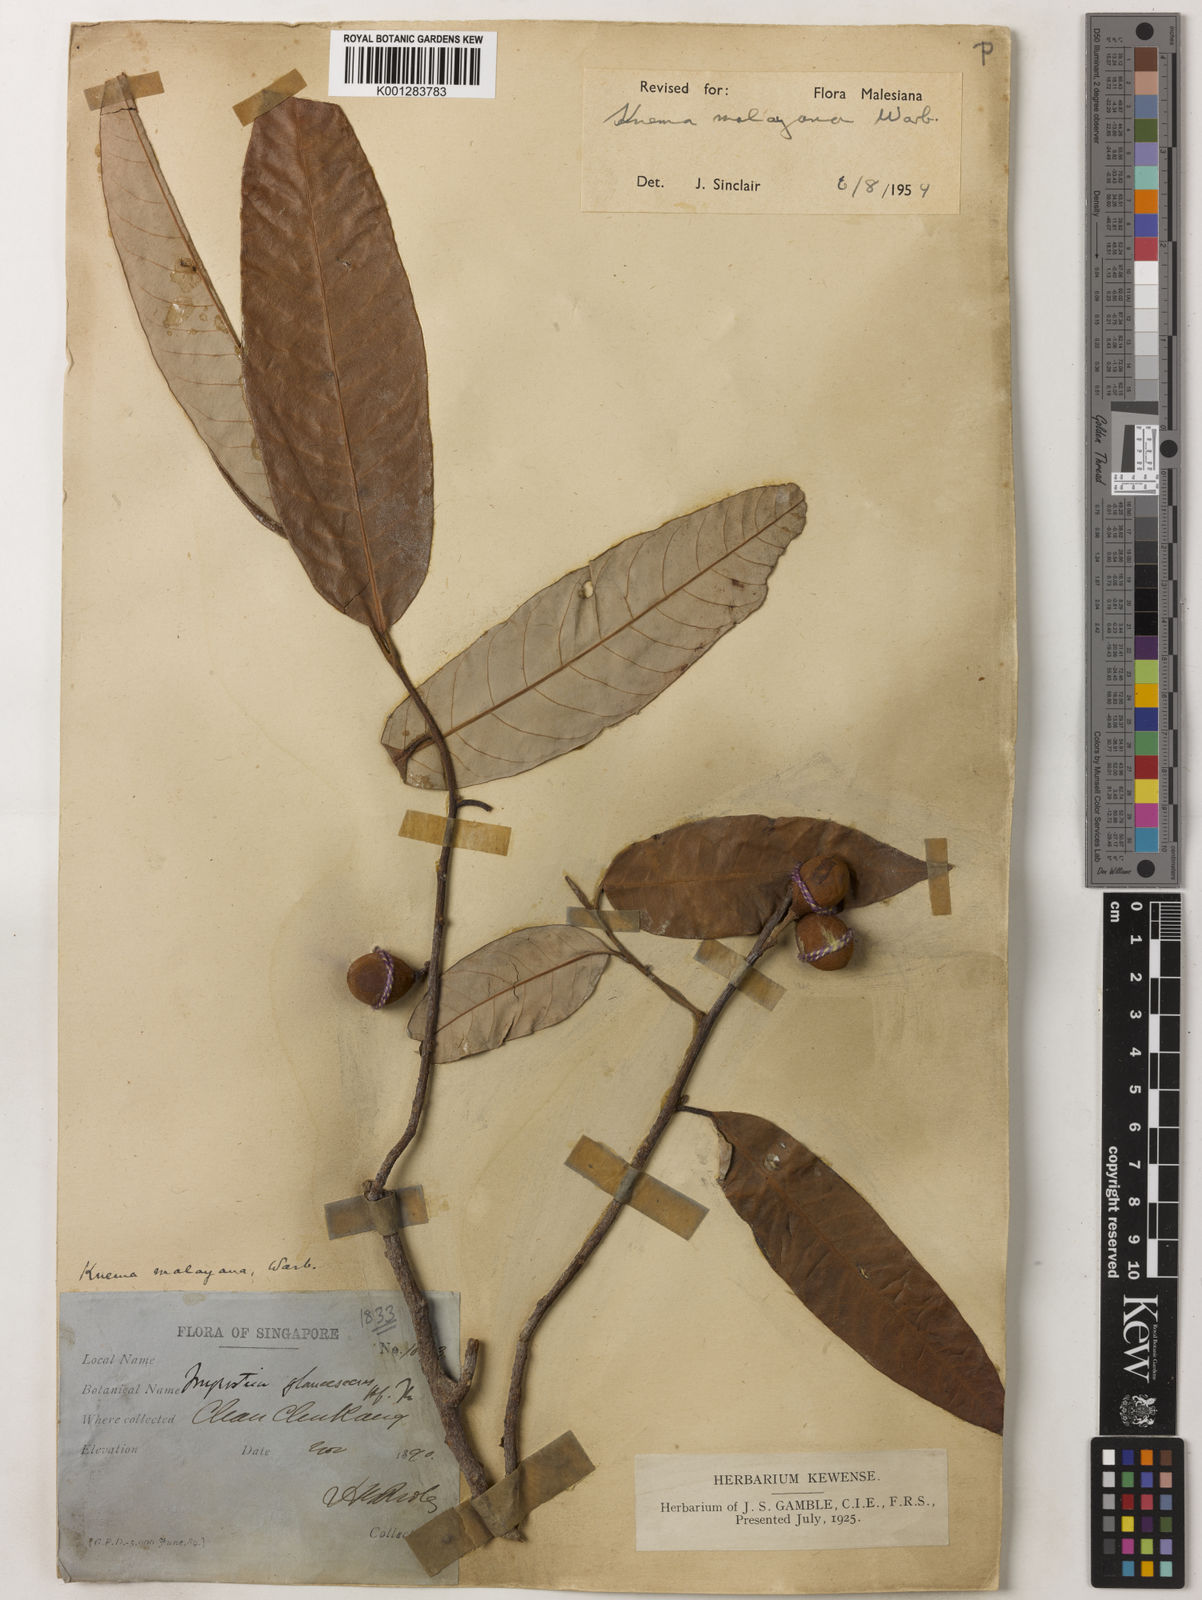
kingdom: Plantae
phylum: Tracheophyta
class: Magnoliopsida
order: Magnoliales
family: Myristicaceae
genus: Knema
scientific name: Knema malayana
